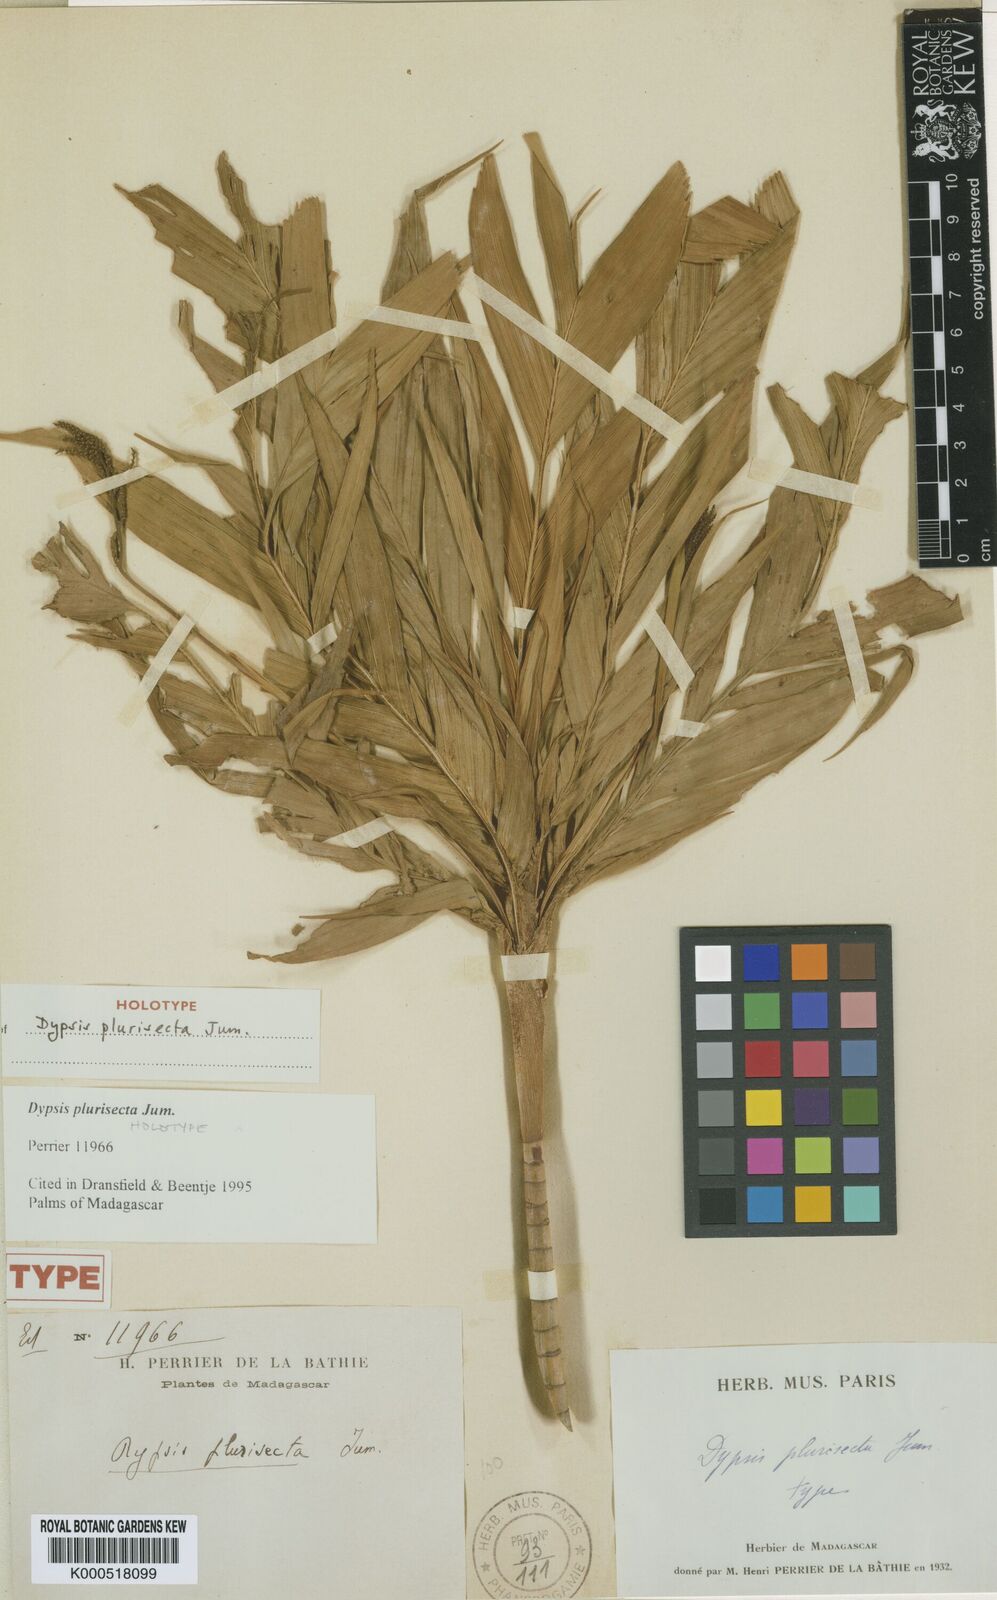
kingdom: Plantae
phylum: Tracheophyta
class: Liliopsida
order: Arecales
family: Arecaceae
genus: Dypsis
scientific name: Dypsis
